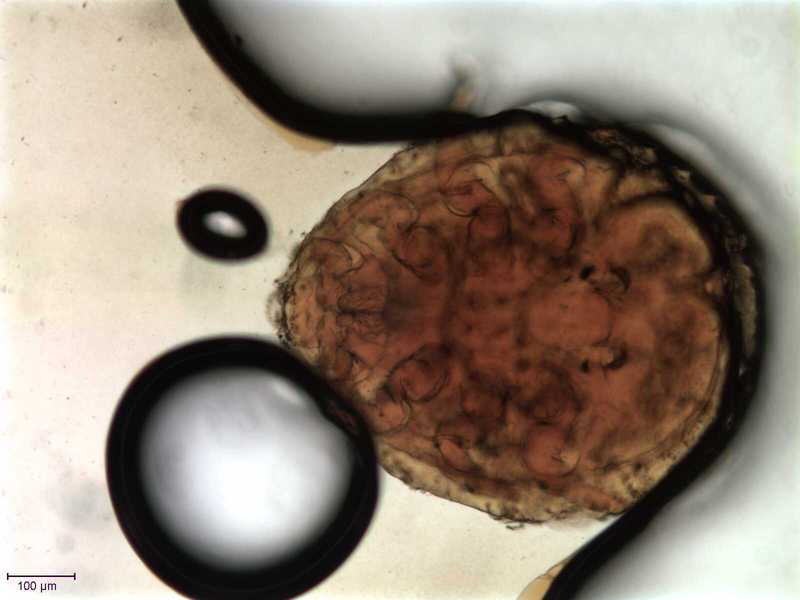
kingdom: Animalia
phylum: Arthropoda
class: Arachnida
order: Mesostigmata
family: Uropodidae
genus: Uropoda
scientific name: Uropoda spinosula
